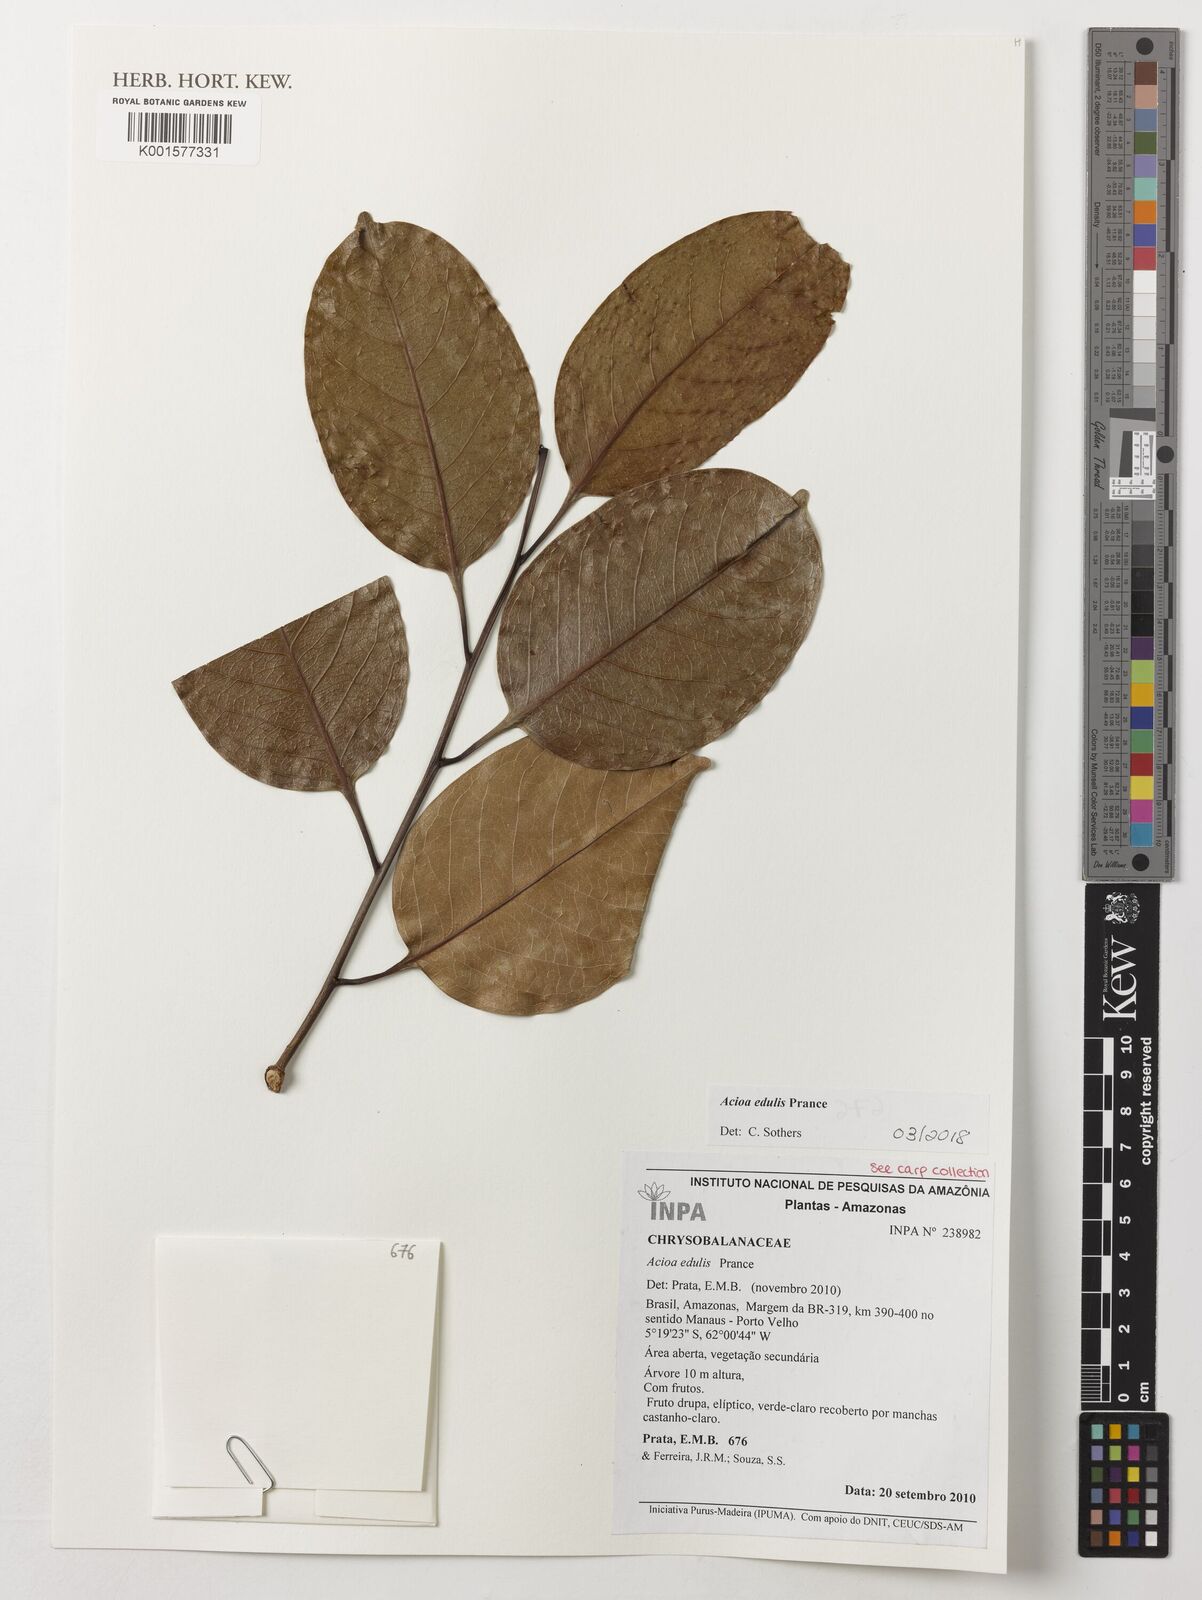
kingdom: Plantae
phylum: Tracheophyta
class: Magnoliopsida
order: Malpighiales
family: Chrysobalanaceae
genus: Acioa
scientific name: Acioa edulis
